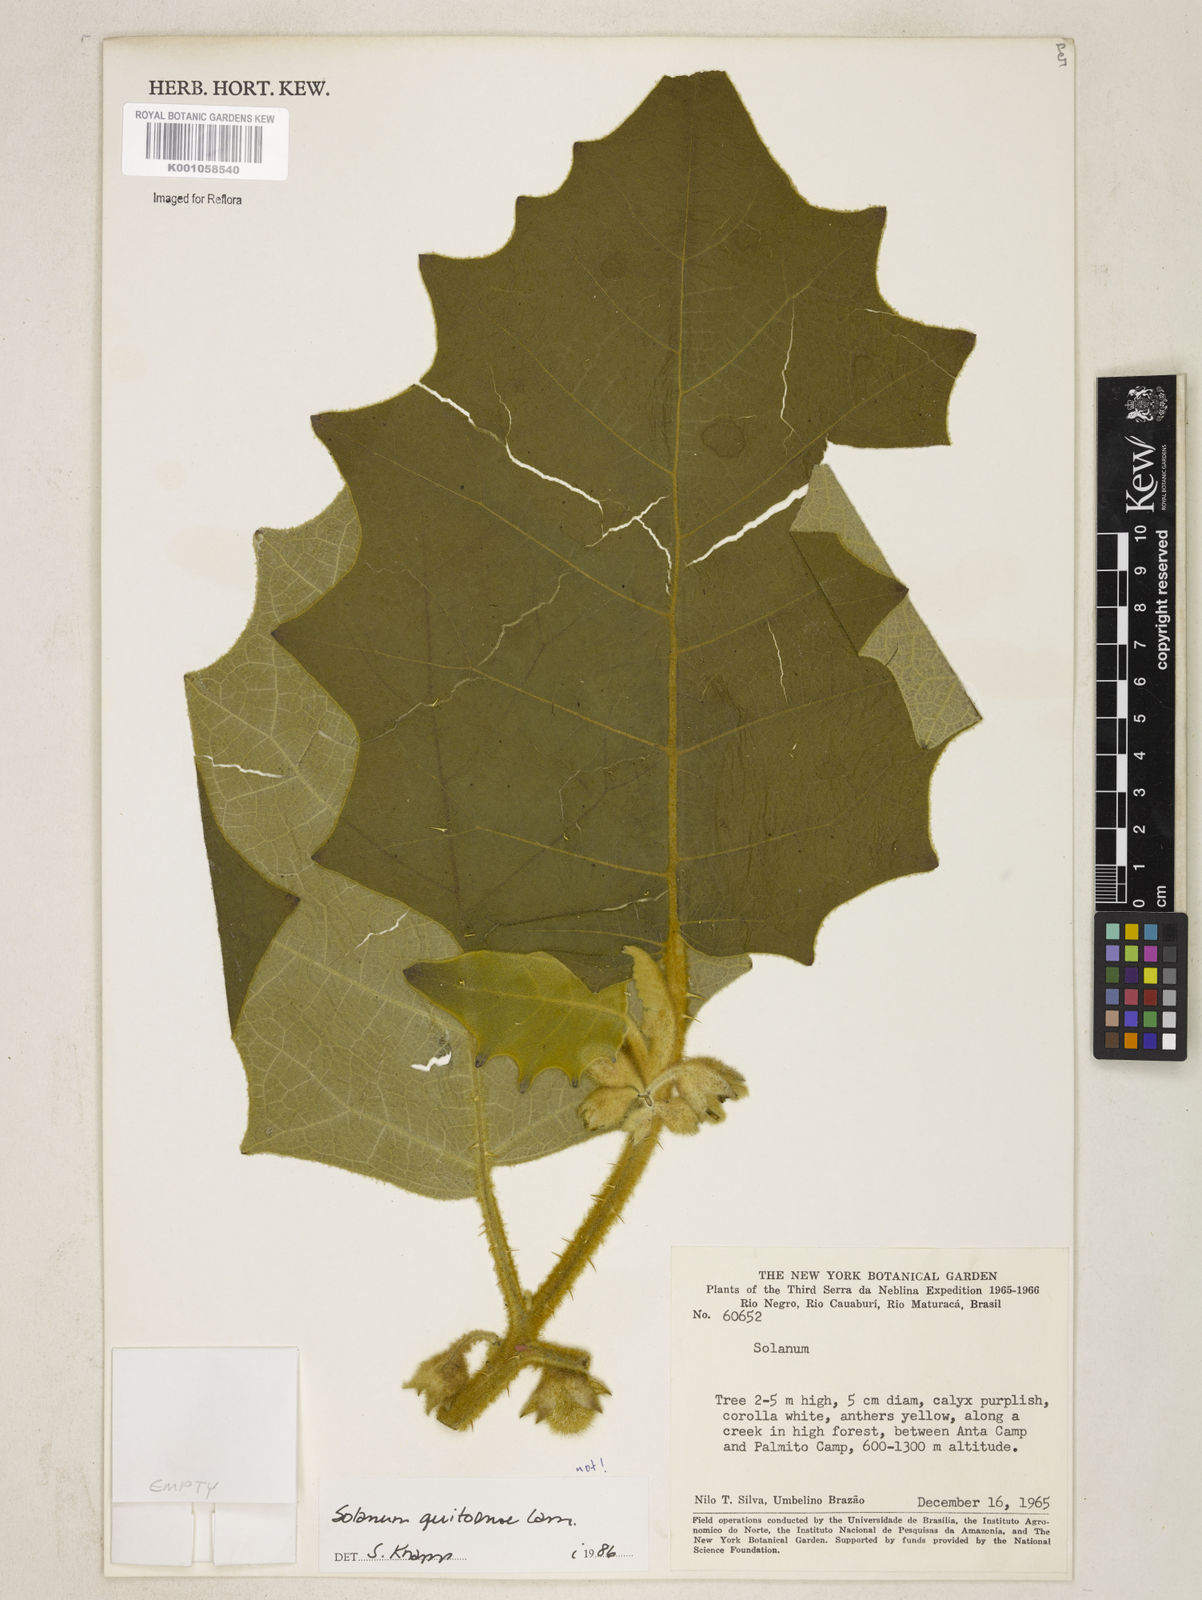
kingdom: Plantae
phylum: Tracheophyta
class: Magnoliopsida
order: Solanales
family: Solanaceae
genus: Solanum
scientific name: Solanum quitoense
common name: Quito-orange
